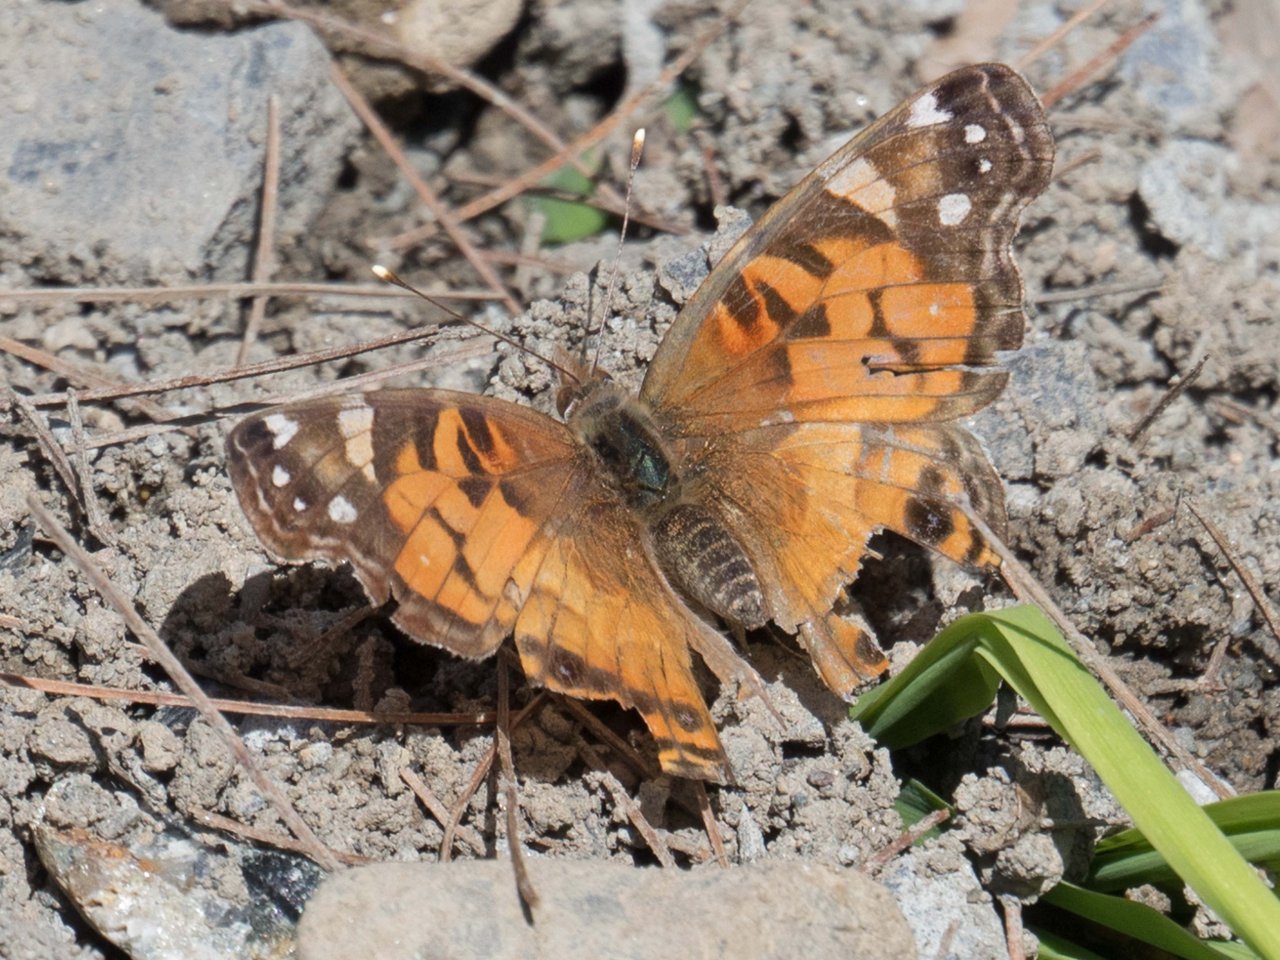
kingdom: Animalia
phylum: Arthropoda
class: Insecta
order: Lepidoptera
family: Nymphalidae
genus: Vanessa
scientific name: Vanessa
